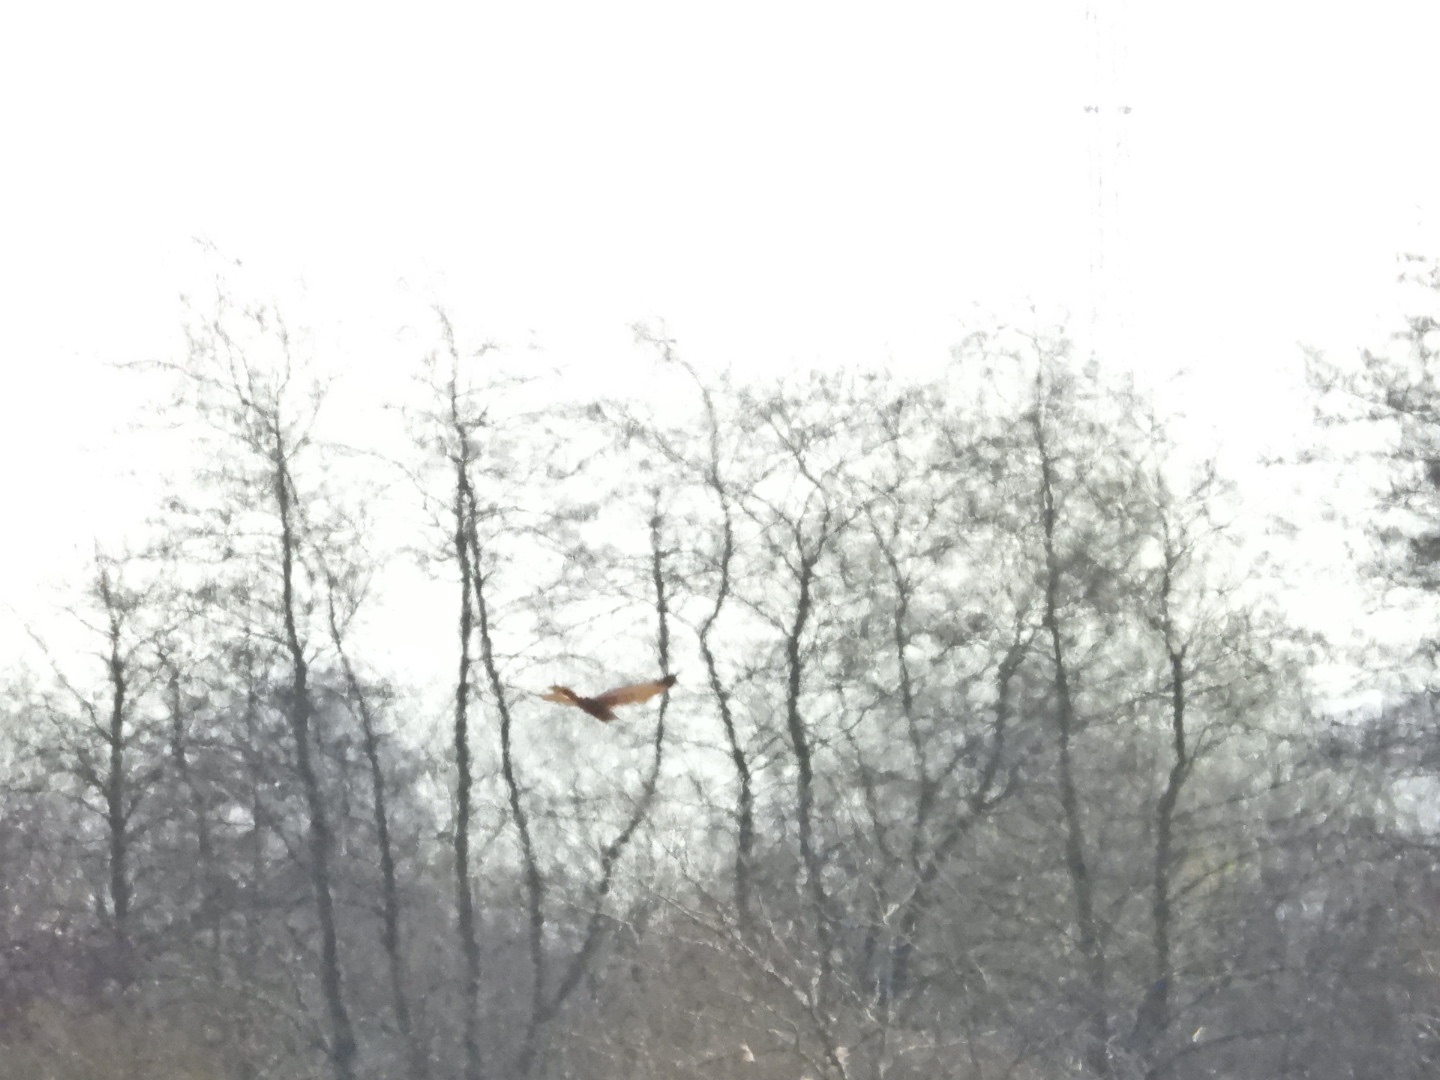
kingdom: Animalia
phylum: Chordata
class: Aves
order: Accipitriformes
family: Accipitridae
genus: Circus
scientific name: Circus aeruginosus
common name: Rørhøg
